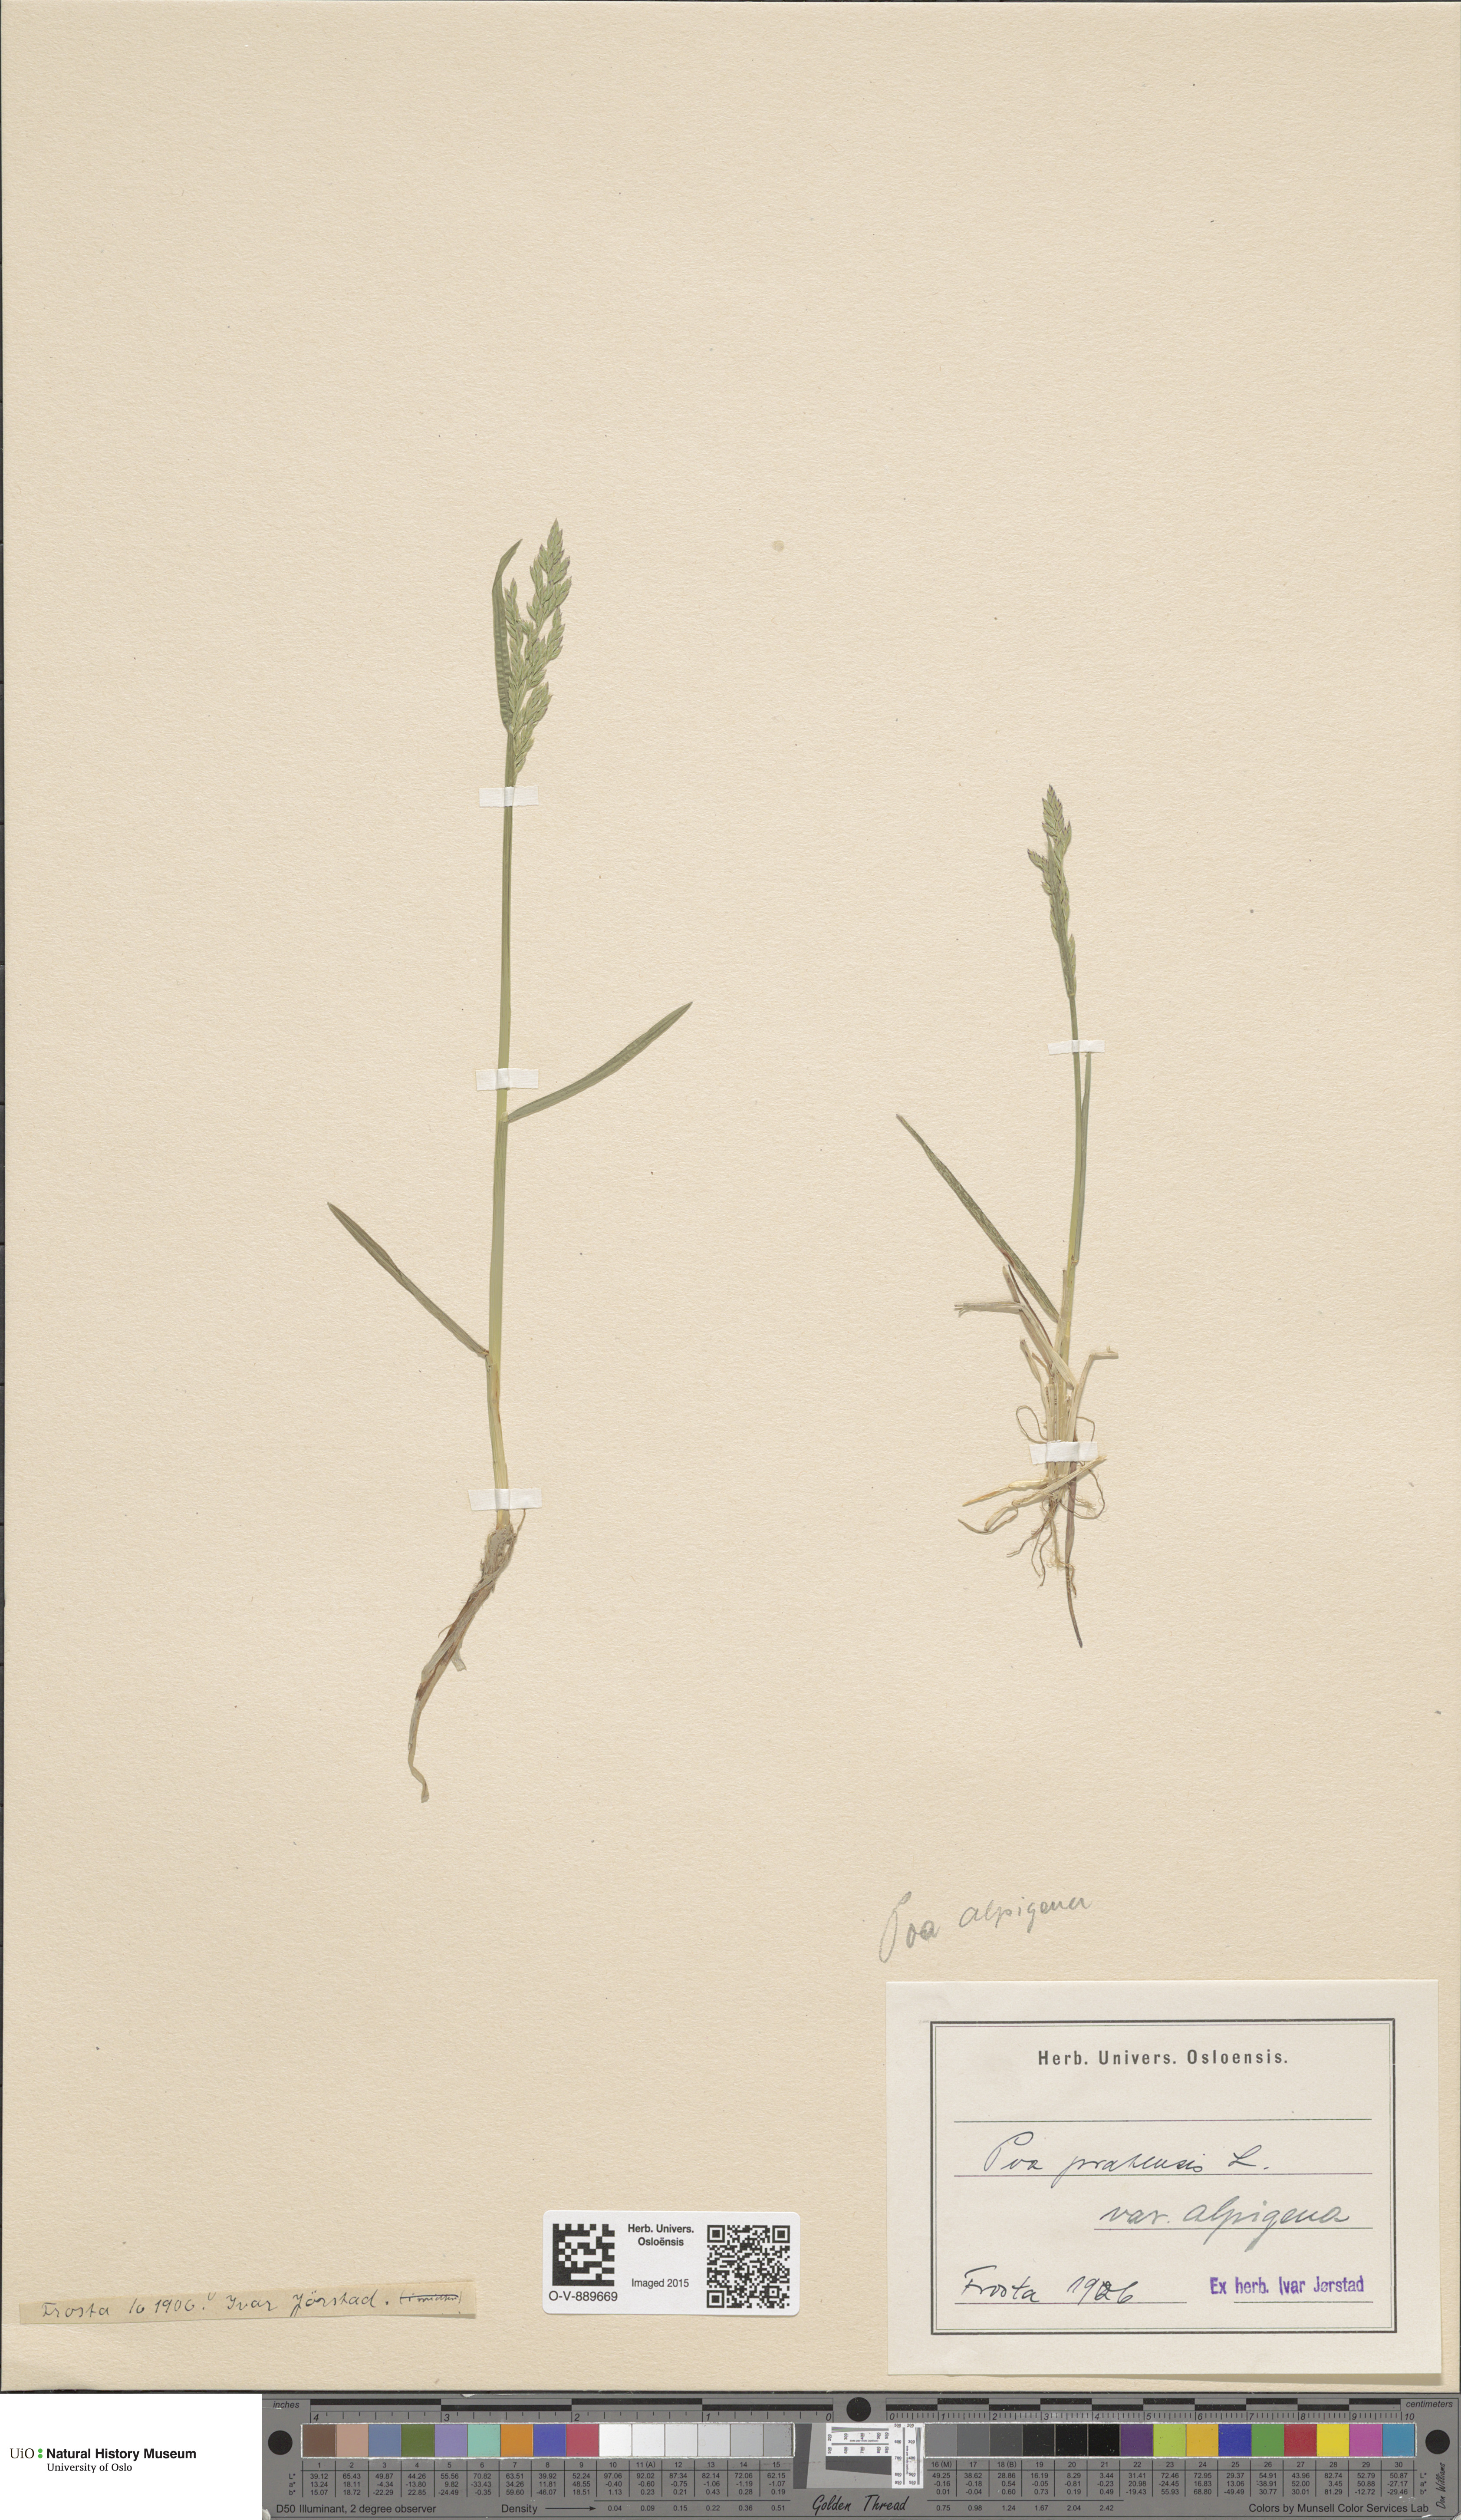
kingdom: Plantae
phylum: Tracheophyta
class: Liliopsida
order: Poales
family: Poaceae
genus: Poa
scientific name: Poa alpigena
